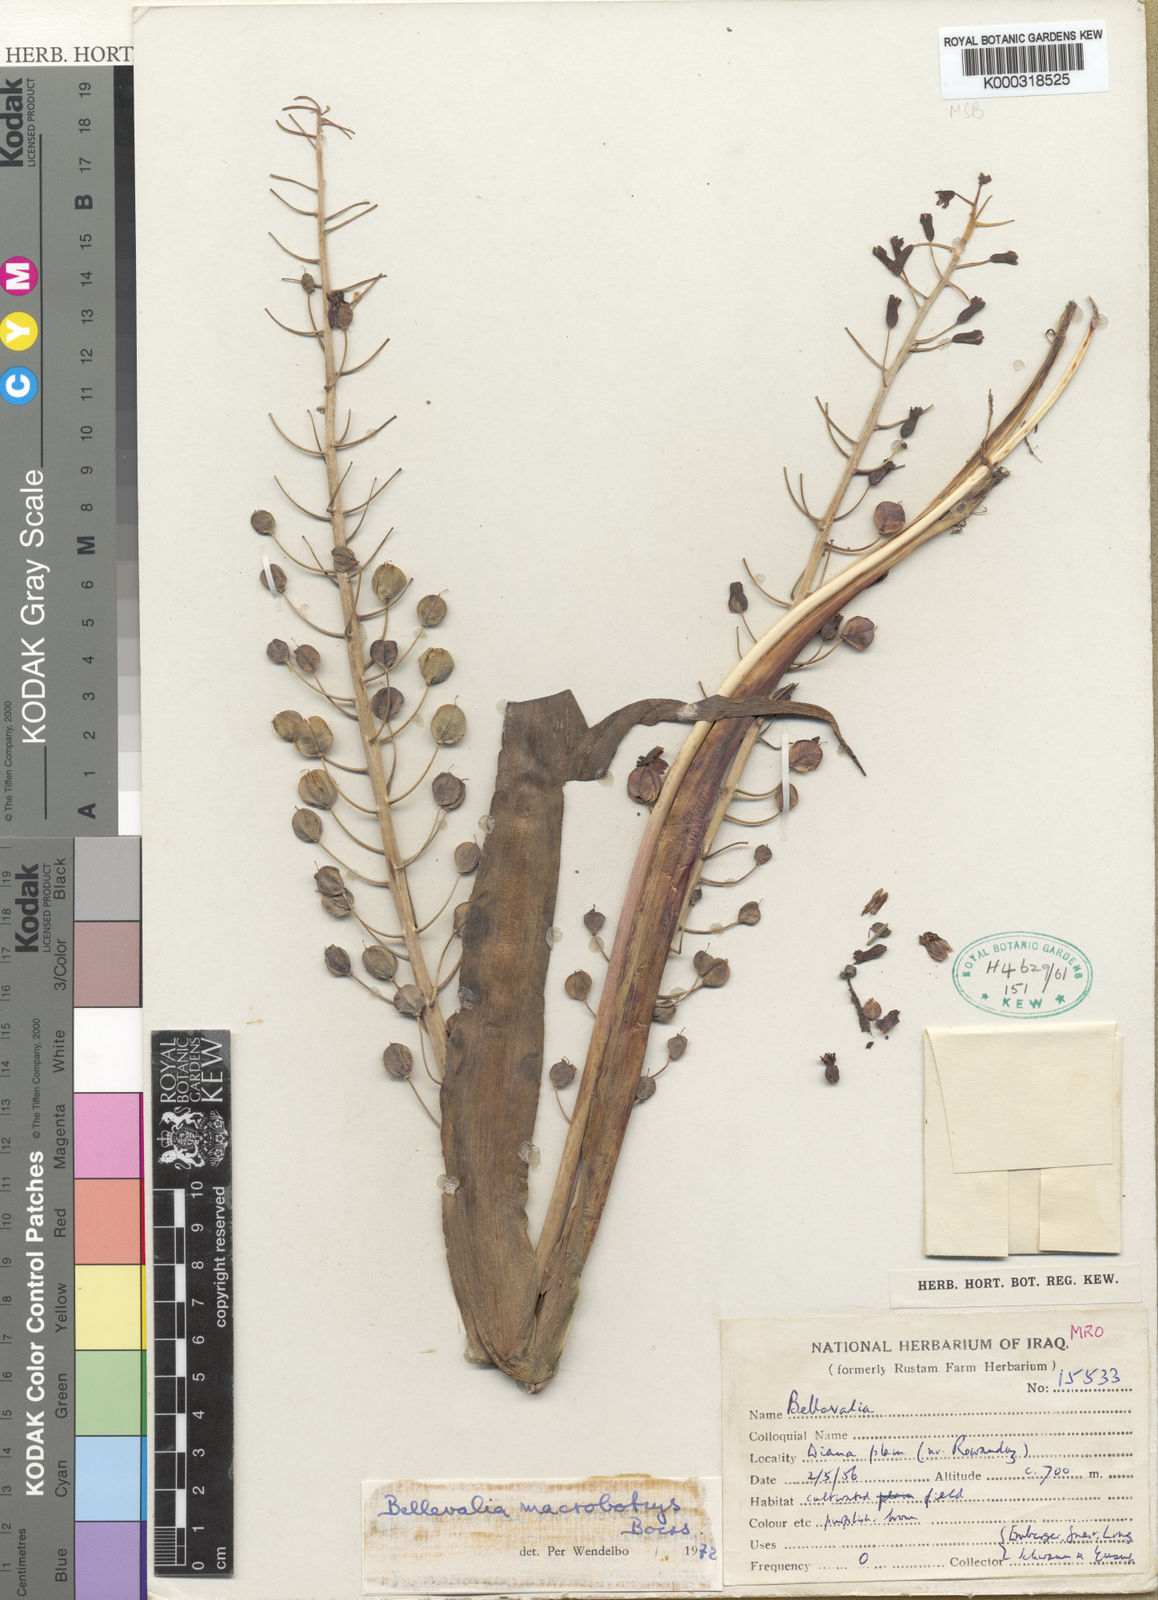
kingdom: Plantae
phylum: Tracheophyta
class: Liliopsida
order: Asparagales
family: Asparagaceae
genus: Bellevalia
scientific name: Bellevalia macrobotrys
